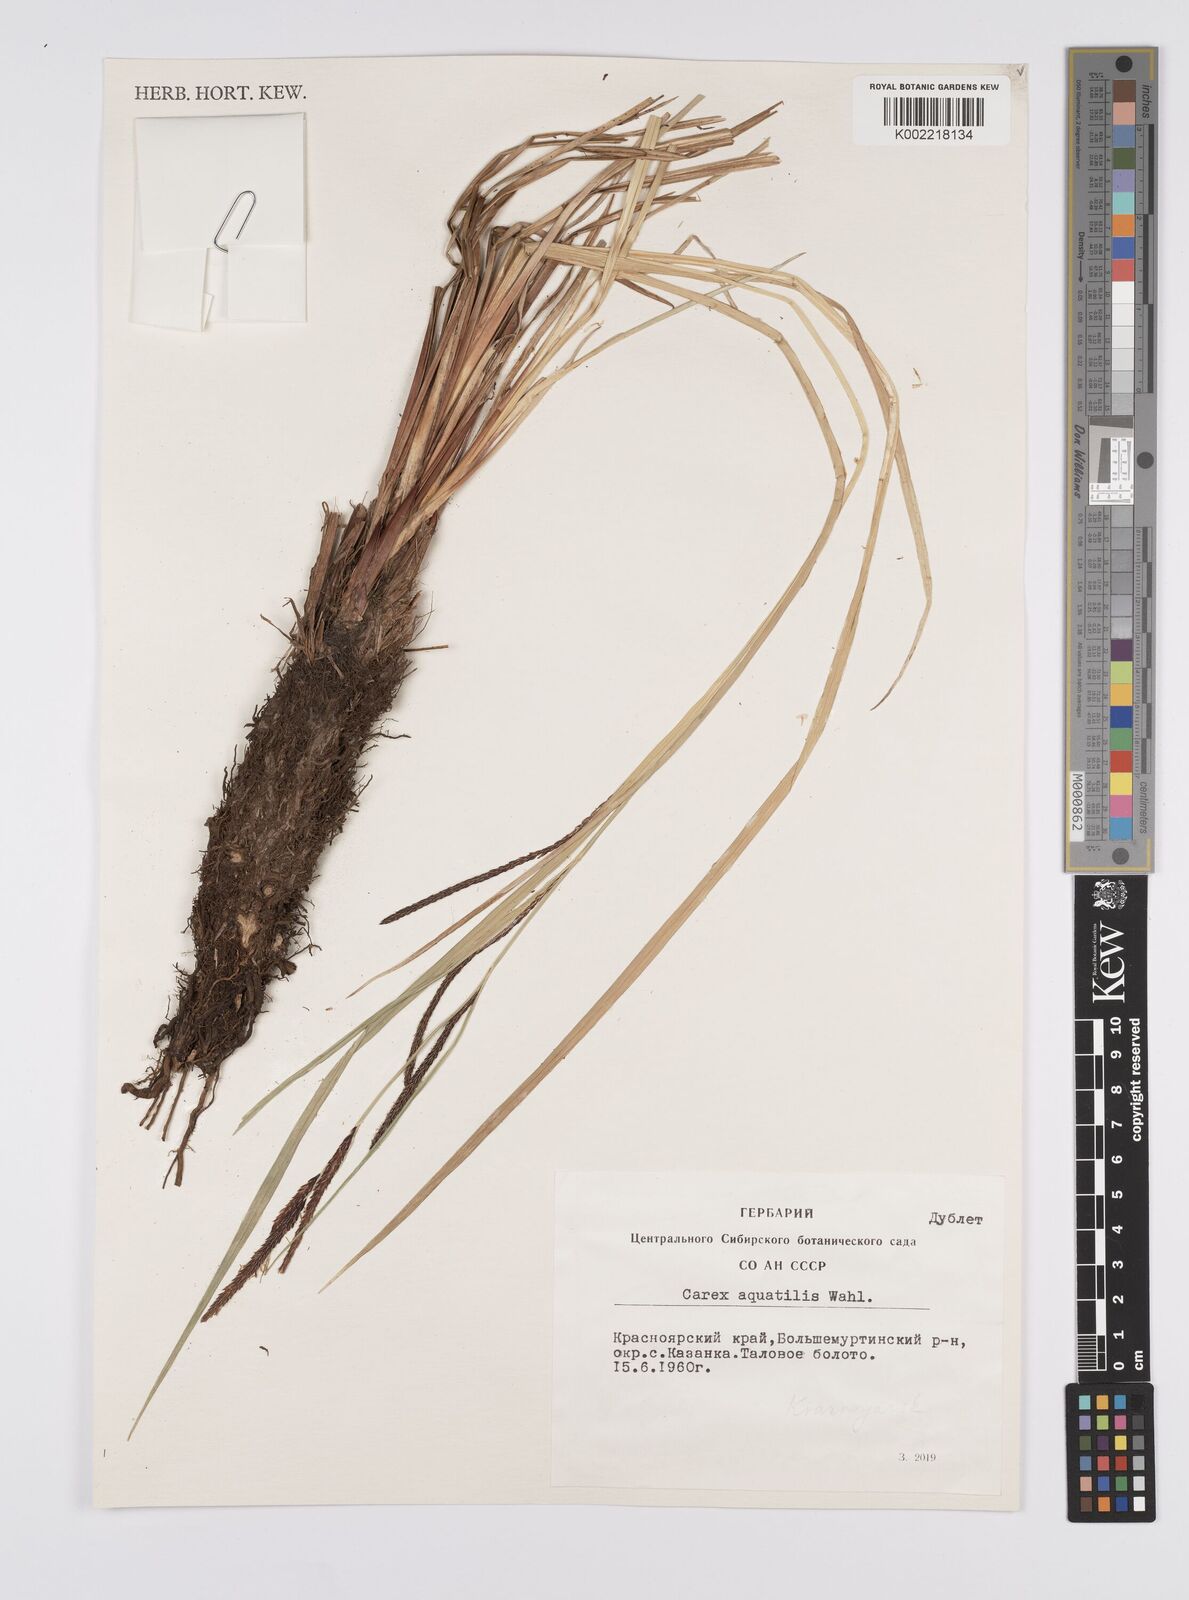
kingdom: Plantae
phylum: Tracheophyta
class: Liliopsida
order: Poales
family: Cyperaceae
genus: Carex
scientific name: Carex aquatilis
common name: Water sedge
